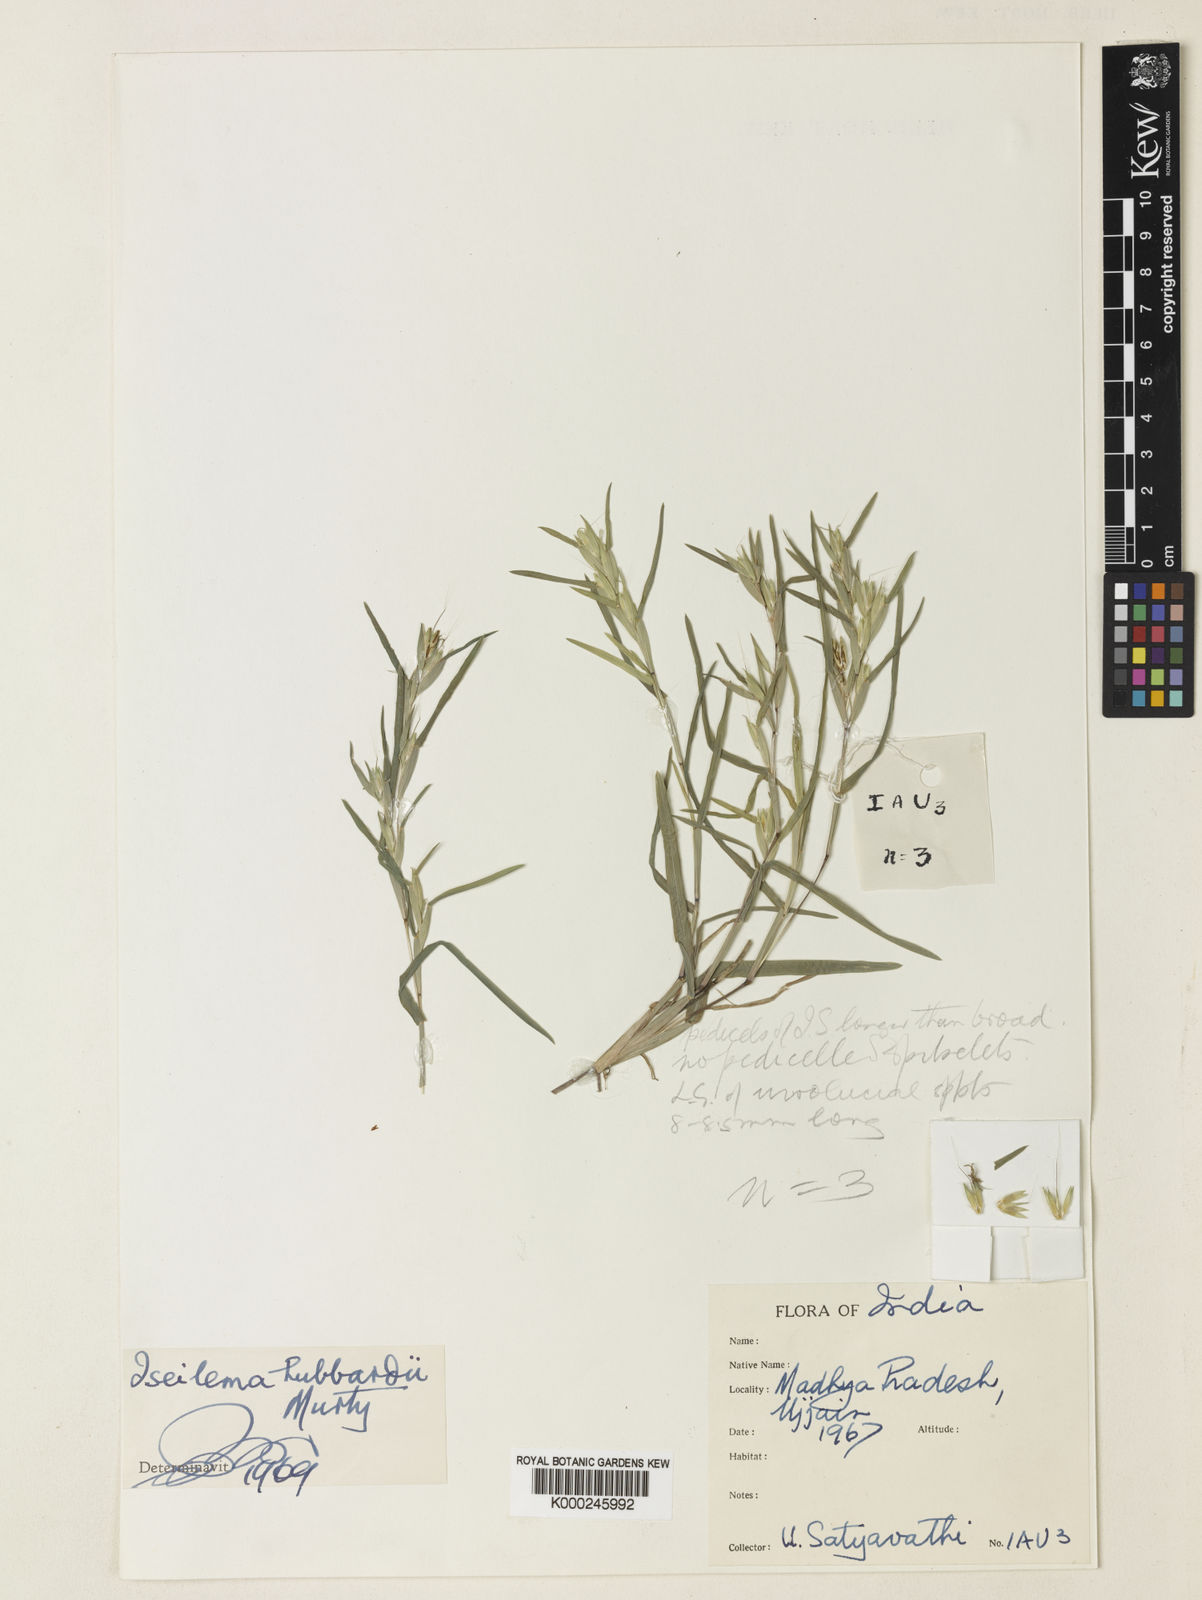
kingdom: Plantae
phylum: Tracheophyta
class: Liliopsida
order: Poales
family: Poaceae
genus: Iseilema
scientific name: Iseilema
